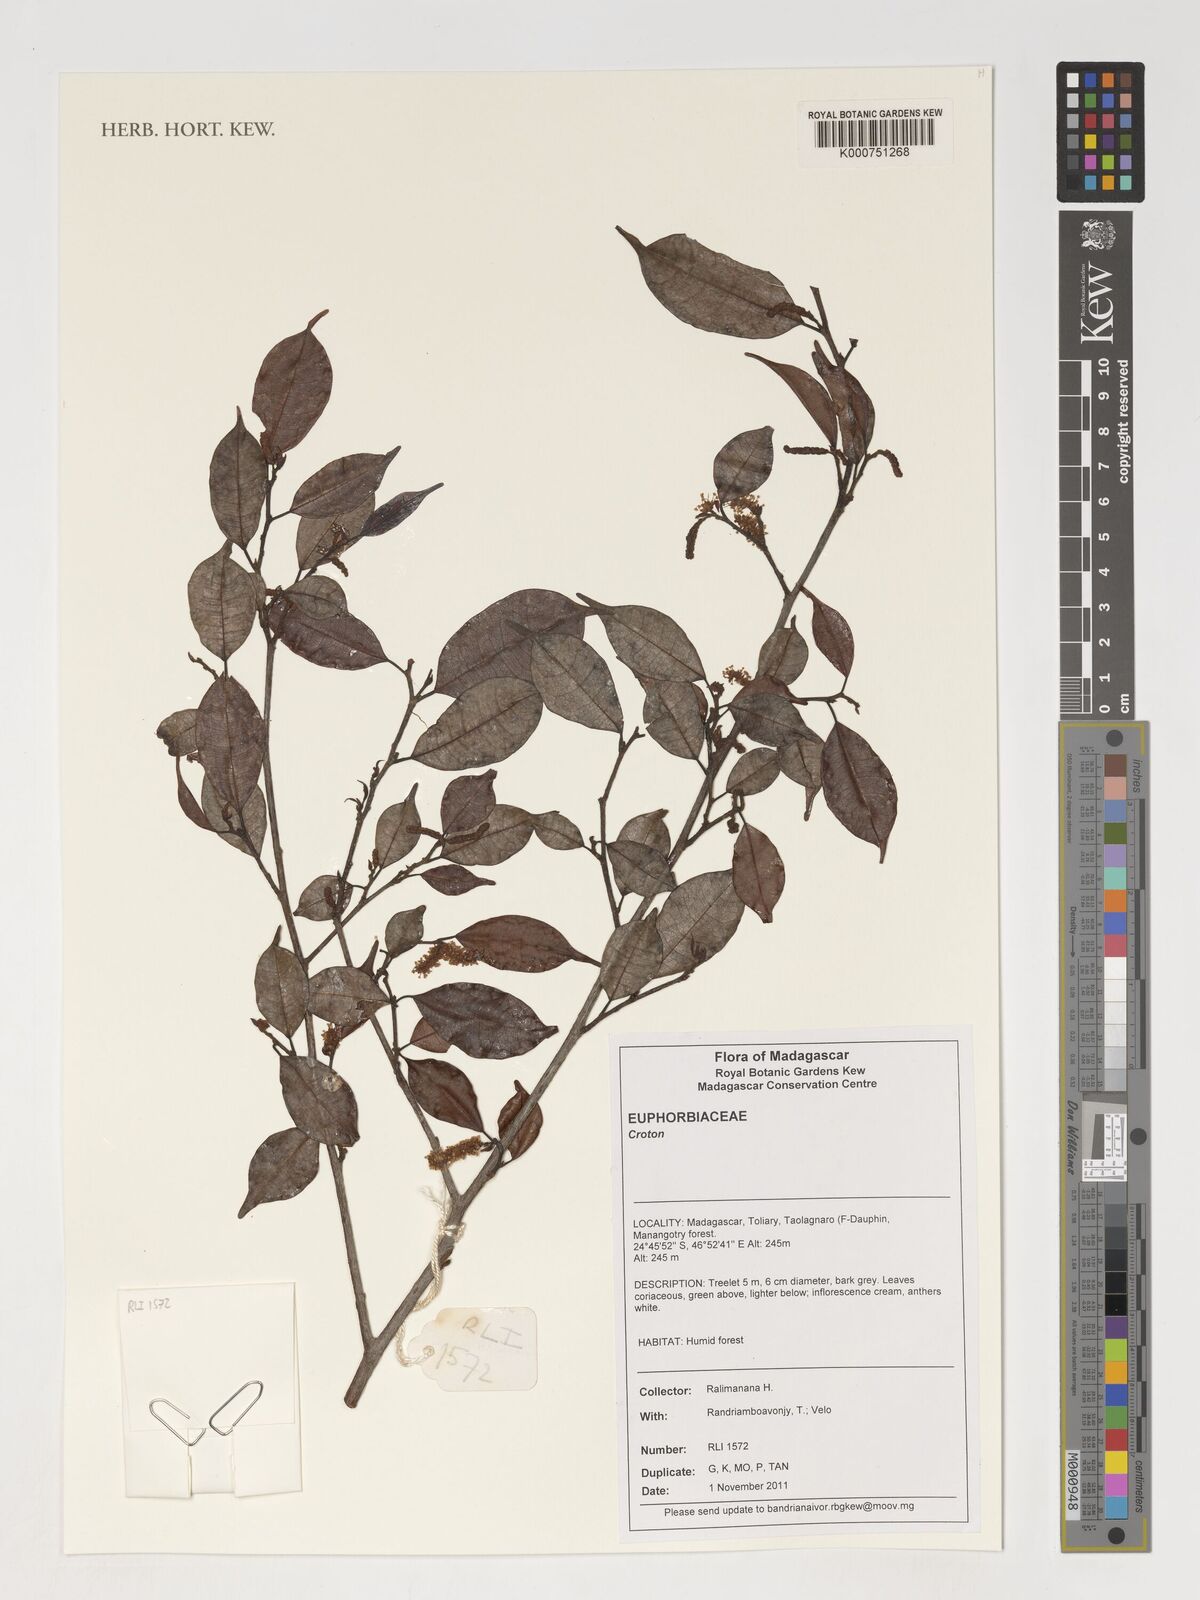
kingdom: Plantae
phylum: Tracheophyta
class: Magnoliopsida
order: Malpighiales
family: Euphorbiaceae
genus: Croton
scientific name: Croton
